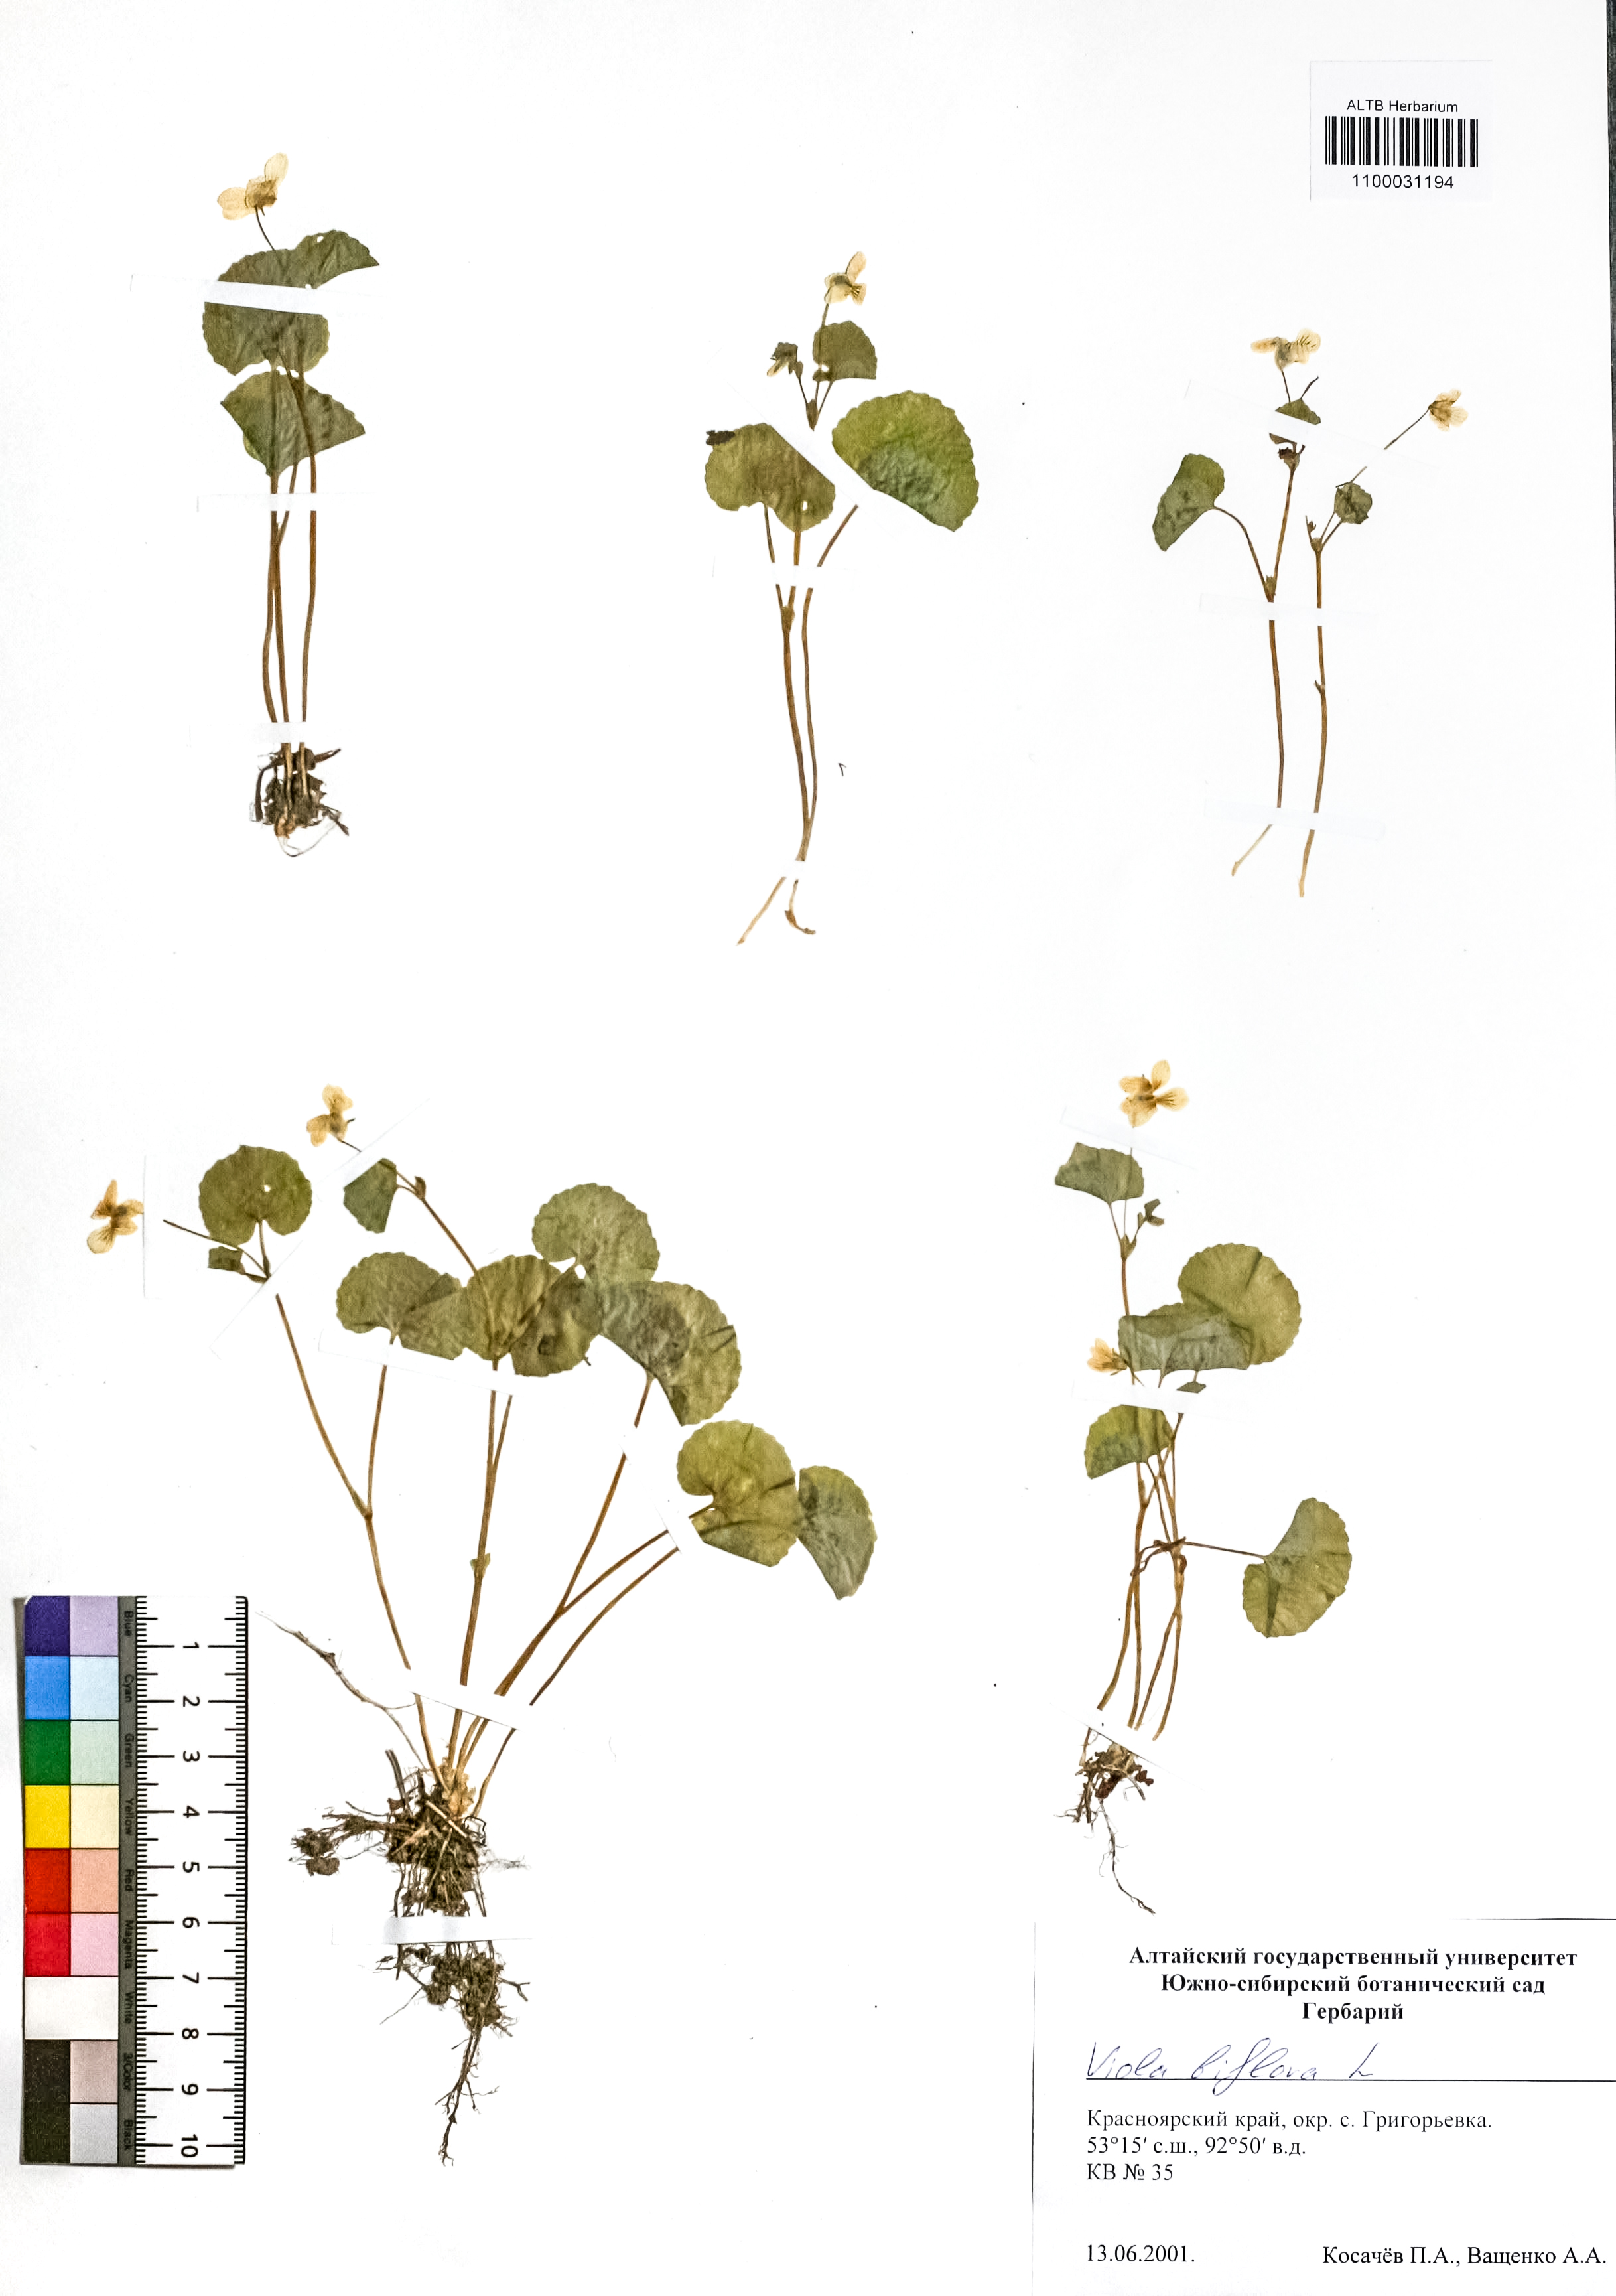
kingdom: Plantae
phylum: Tracheophyta
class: Magnoliopsida
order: Malpighiales
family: Violaceae
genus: Viola
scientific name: Viola biflora
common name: Alpine yellow violet
